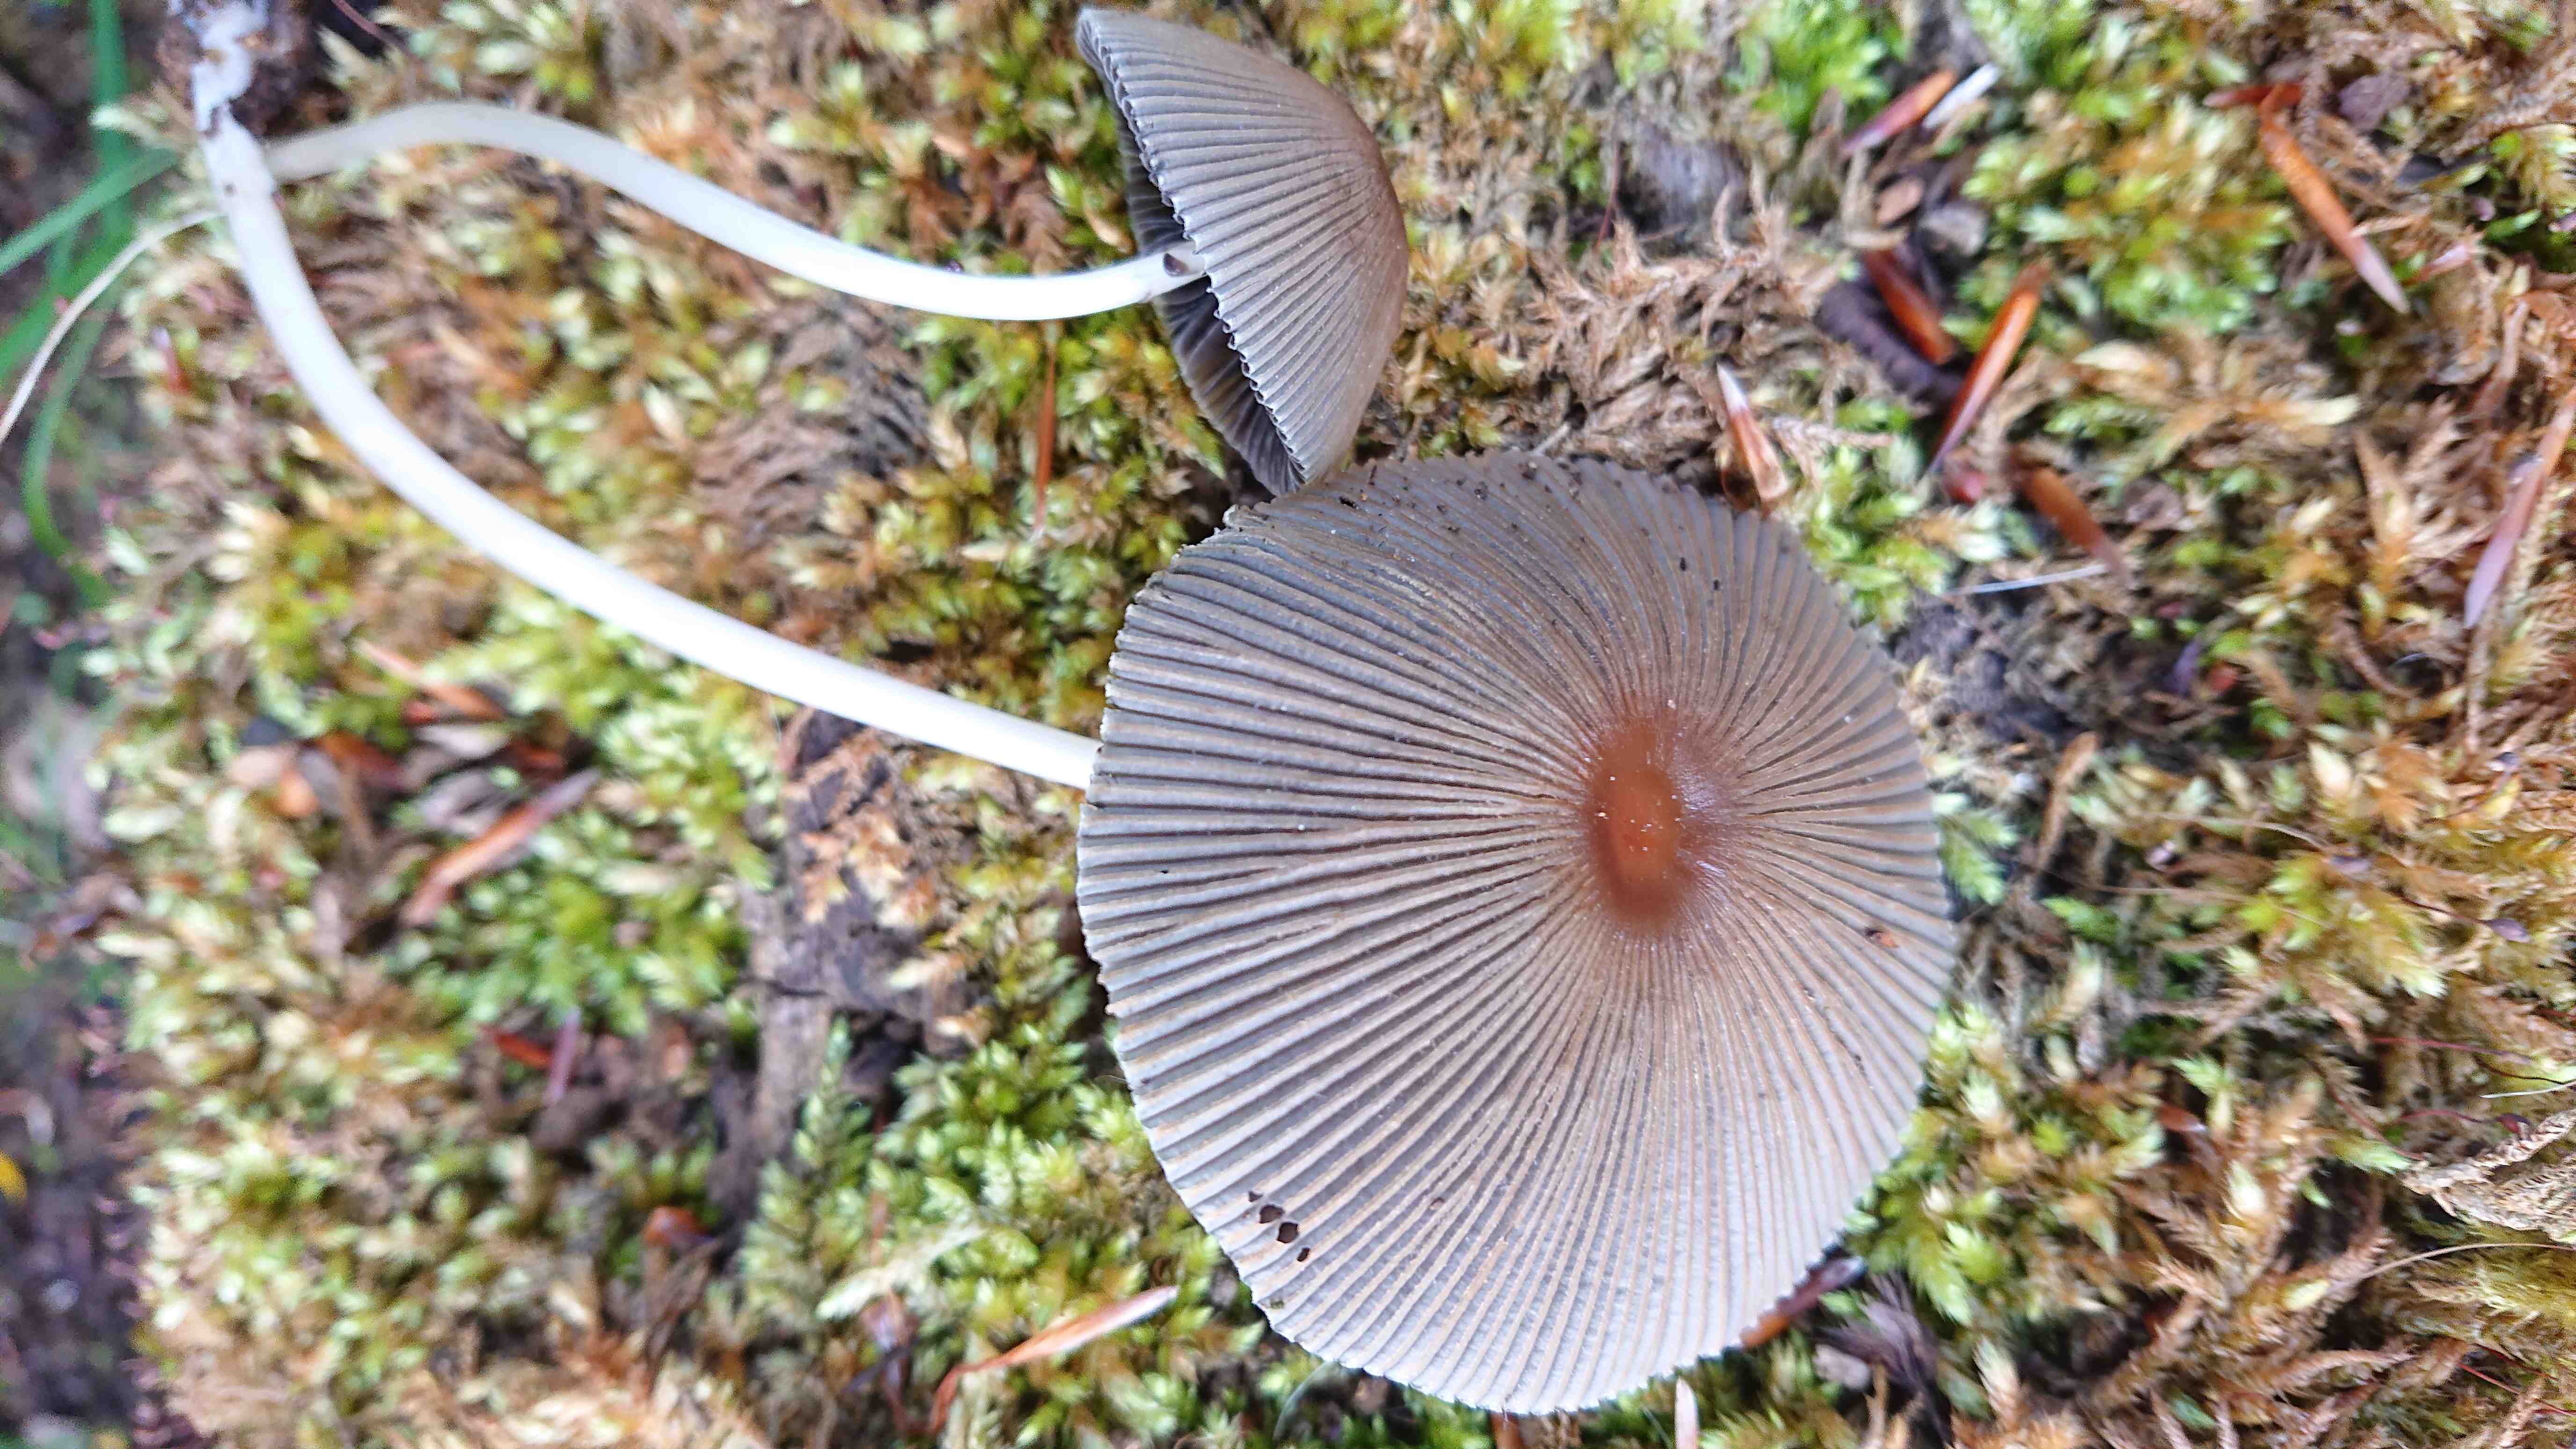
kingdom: Fungi
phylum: Basidiomycota
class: Agaricomycetes
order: Agaricales
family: Psathyrellaceae
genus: Parasola
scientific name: Parasola
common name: hjulhat
